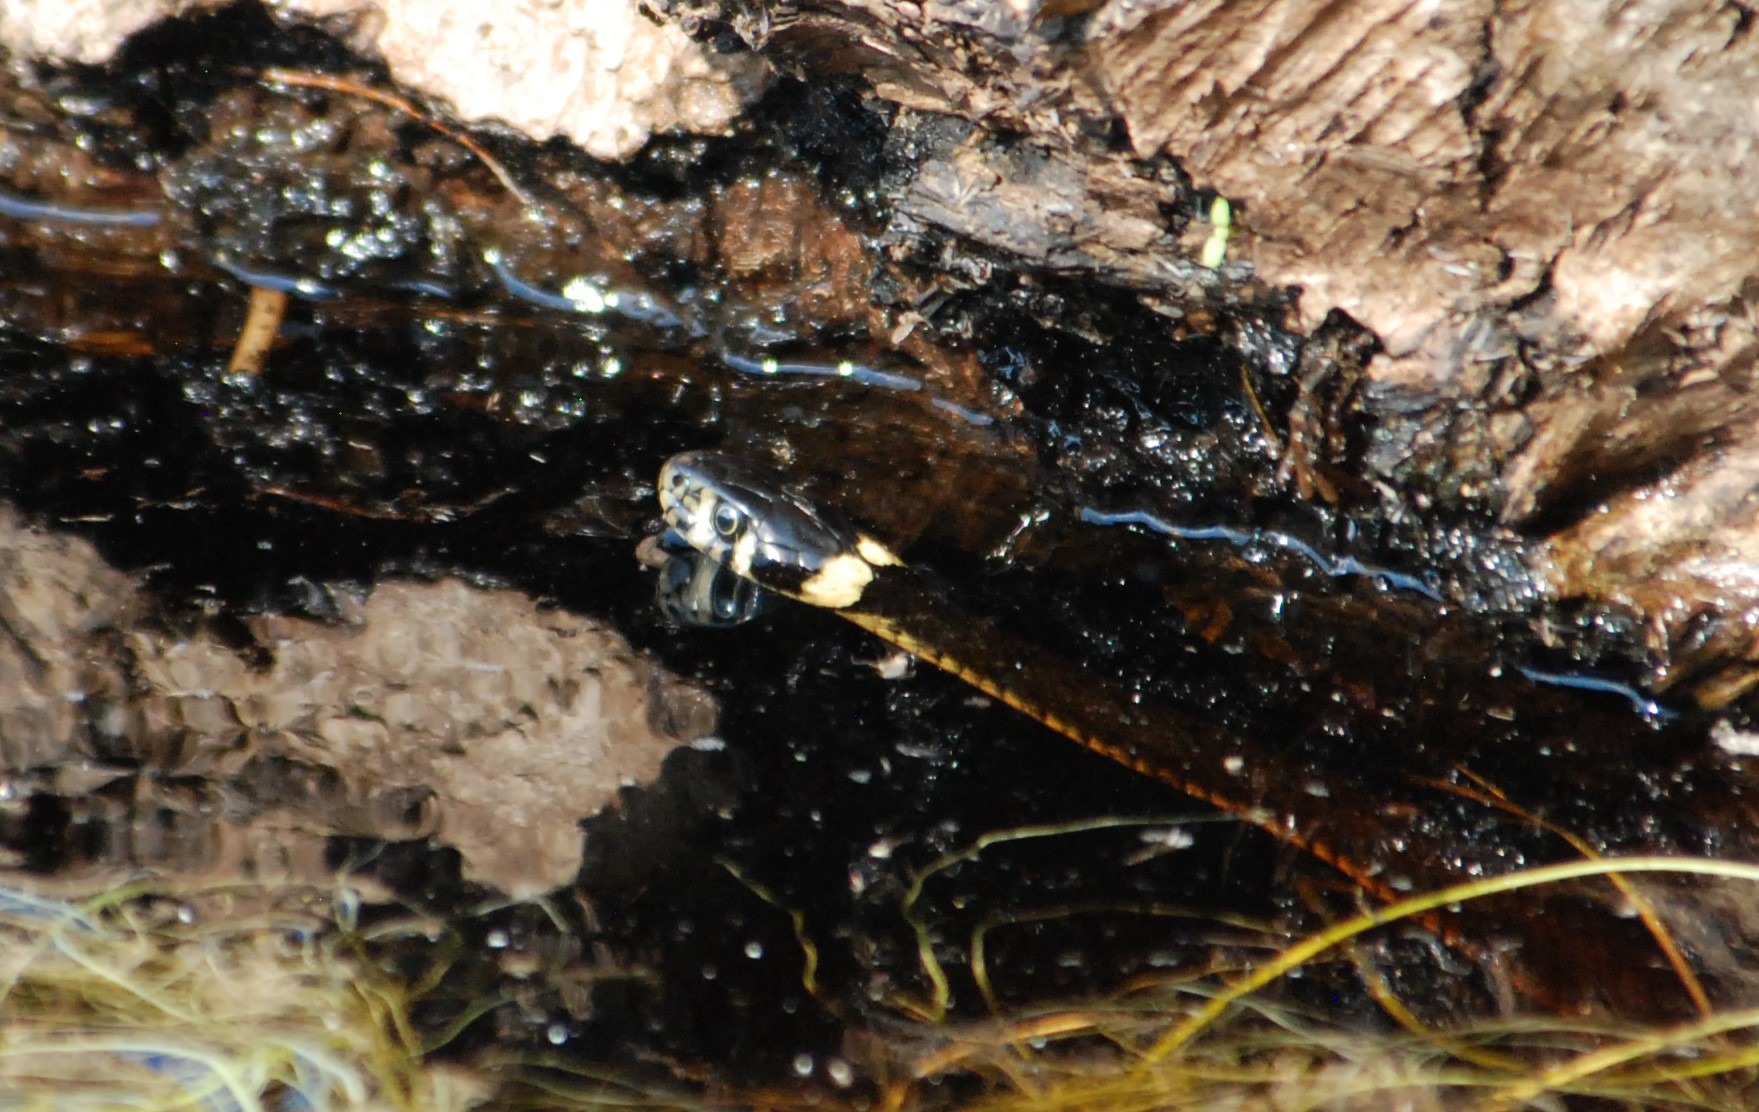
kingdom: Animalia
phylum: Chordata
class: Squamata
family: Colubridae
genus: Natrix
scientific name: Natrix natrix
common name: Snog
